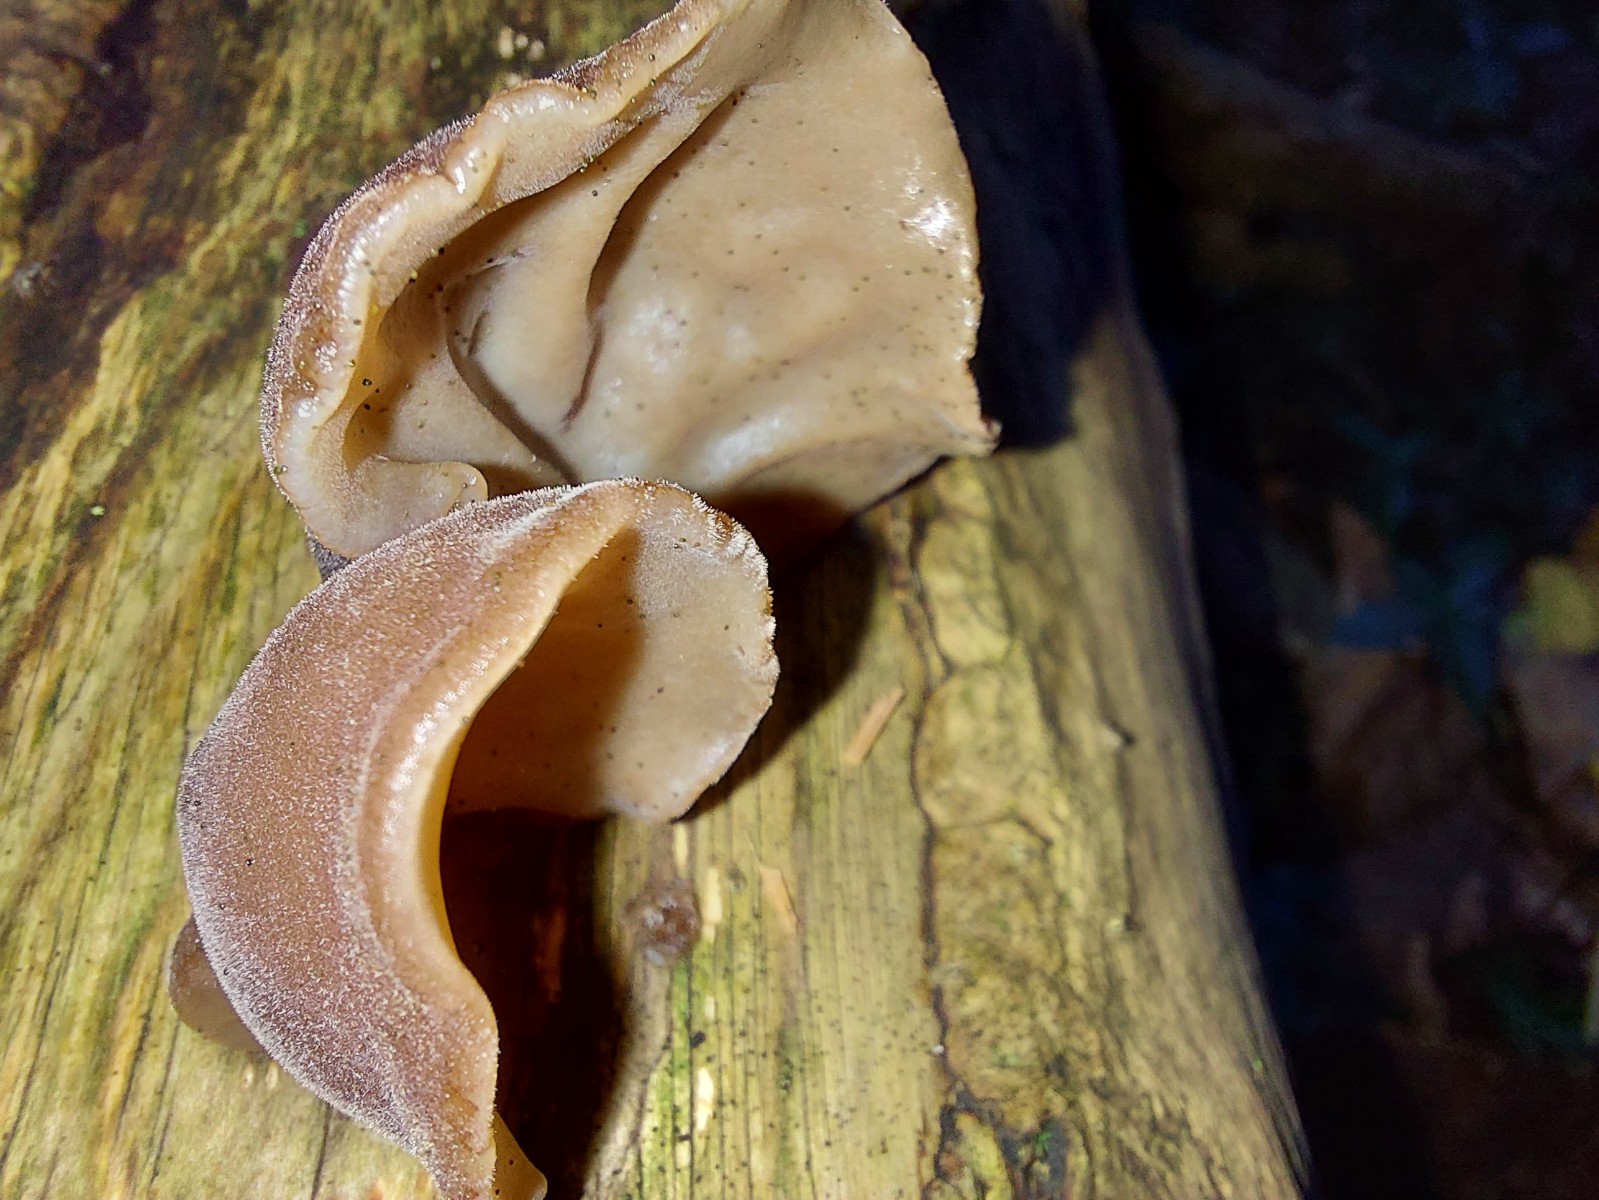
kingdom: Fungi
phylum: Basidiomycota
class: Agaricomycetes
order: Auriculariales
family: Auriculariaceae
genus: Auricularia
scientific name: Auricularia auricula-judae
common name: almindelig judasøre
